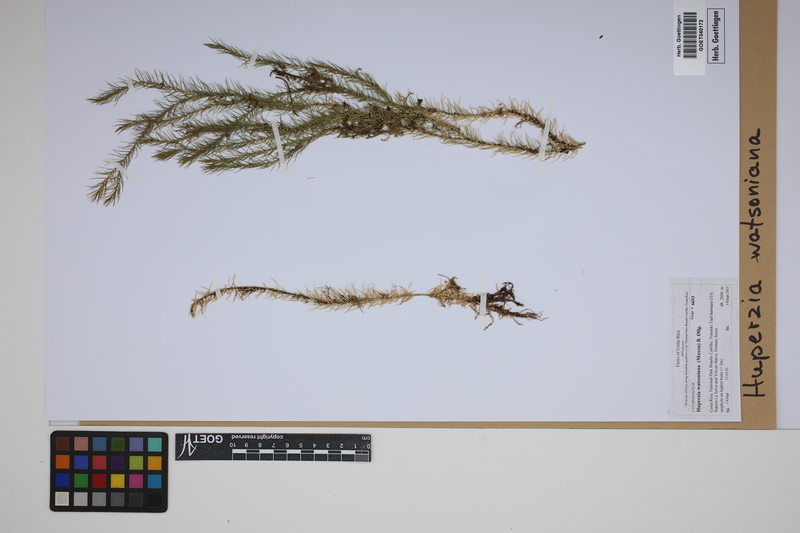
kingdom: Plantae
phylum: Tracheophyta
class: Lycopodiopsida
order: Lycopodiales
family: Lycopodiaceae
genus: Phlegmariurus
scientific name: Phlegmariurus watsonianus
